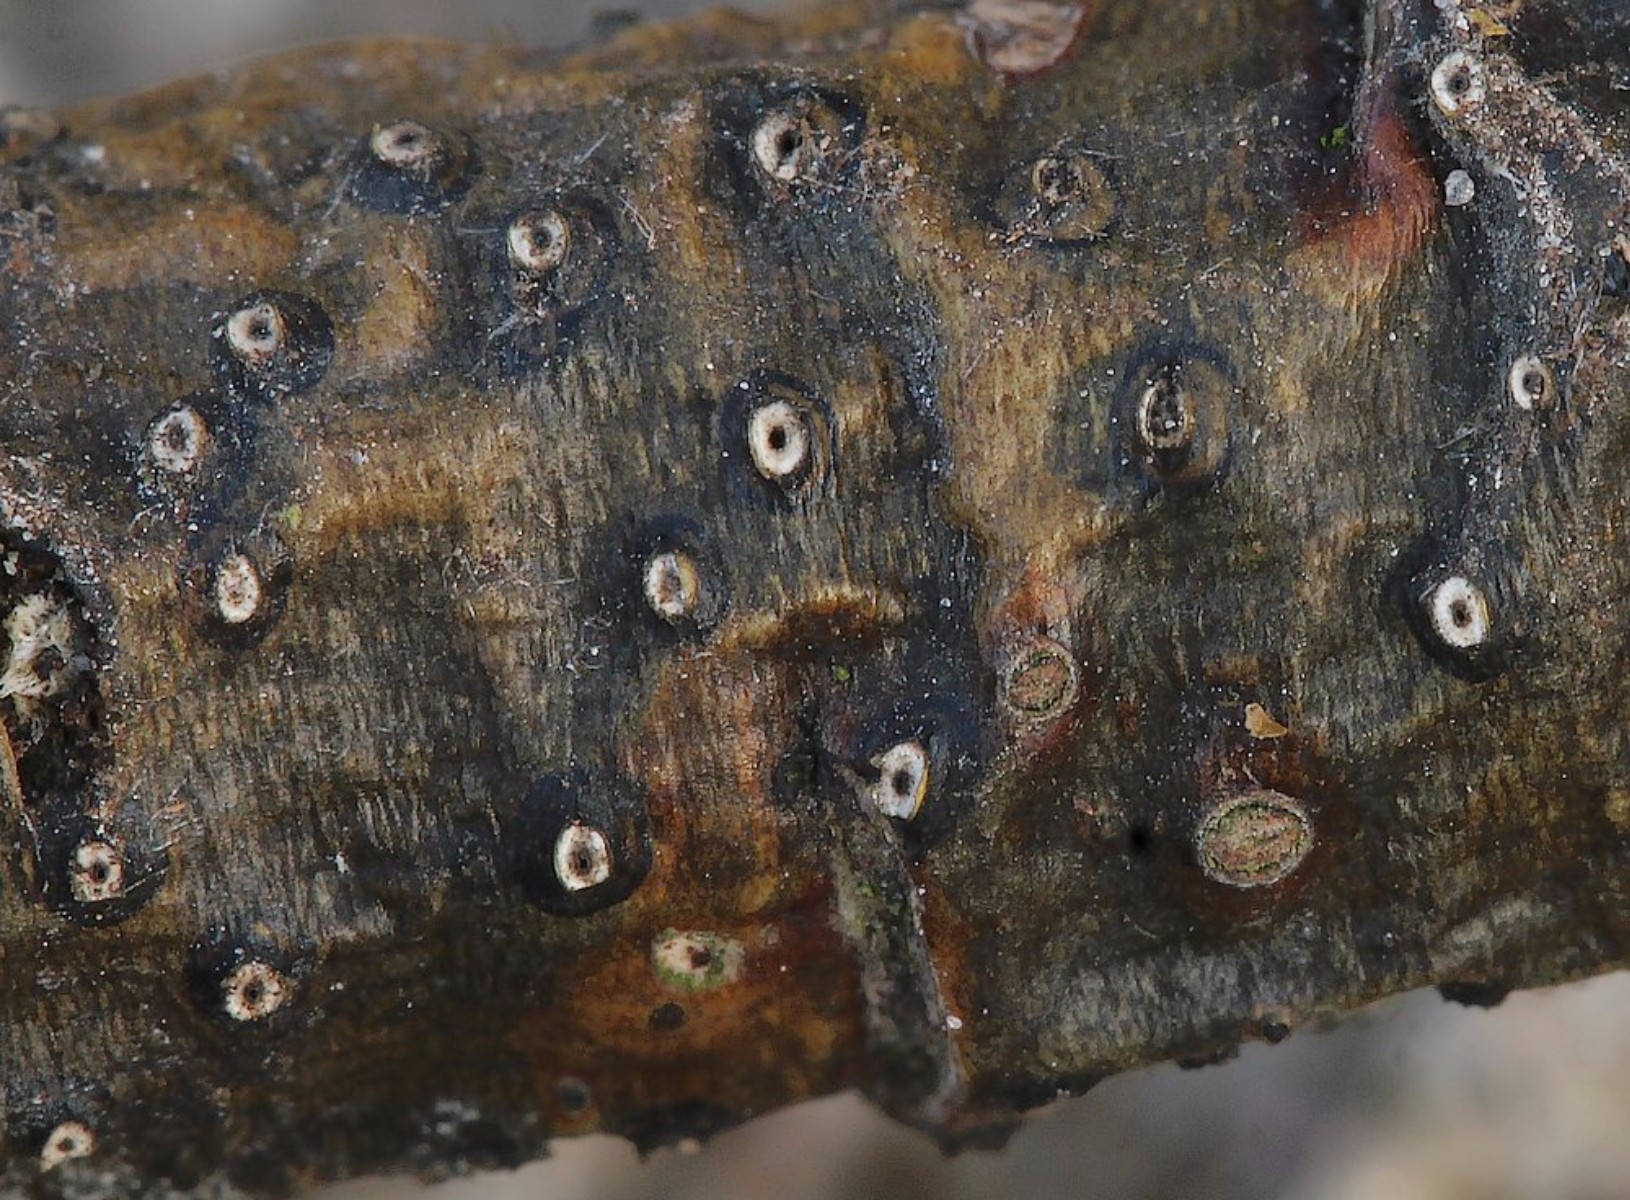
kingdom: Fungi
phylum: Ascomycota
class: Dothideomycetes
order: Valsariales
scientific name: Valsariales
